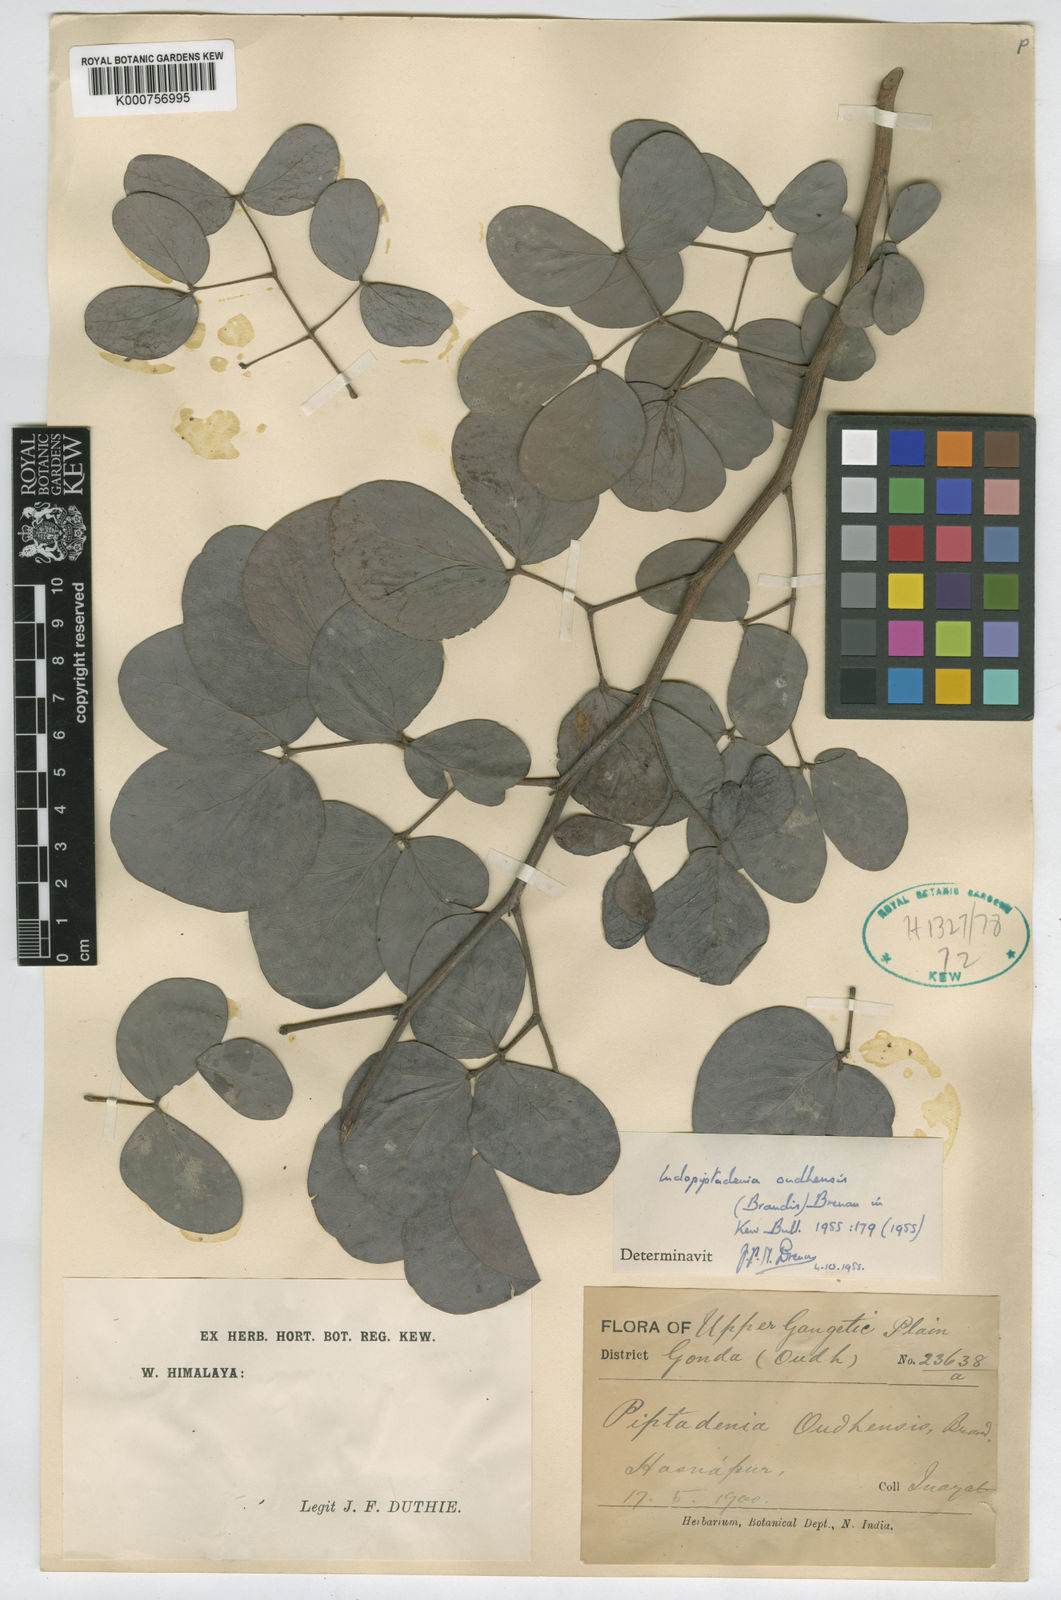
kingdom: Plantae
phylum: Tracheophyta
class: Magnoliopsida
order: Fabales
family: Fabaceae
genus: Indopiptadenia
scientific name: Indopiptadenia oudhensis
